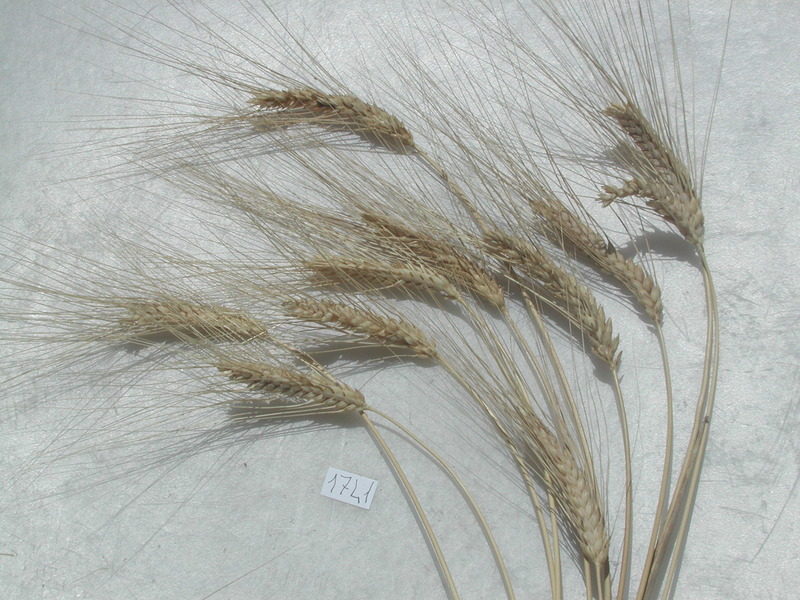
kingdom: Plantae
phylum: Tracheophyta
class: Liliopsida
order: Poales
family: Poaceae
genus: Triticum
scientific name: Triticum turgidum
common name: Wheat
